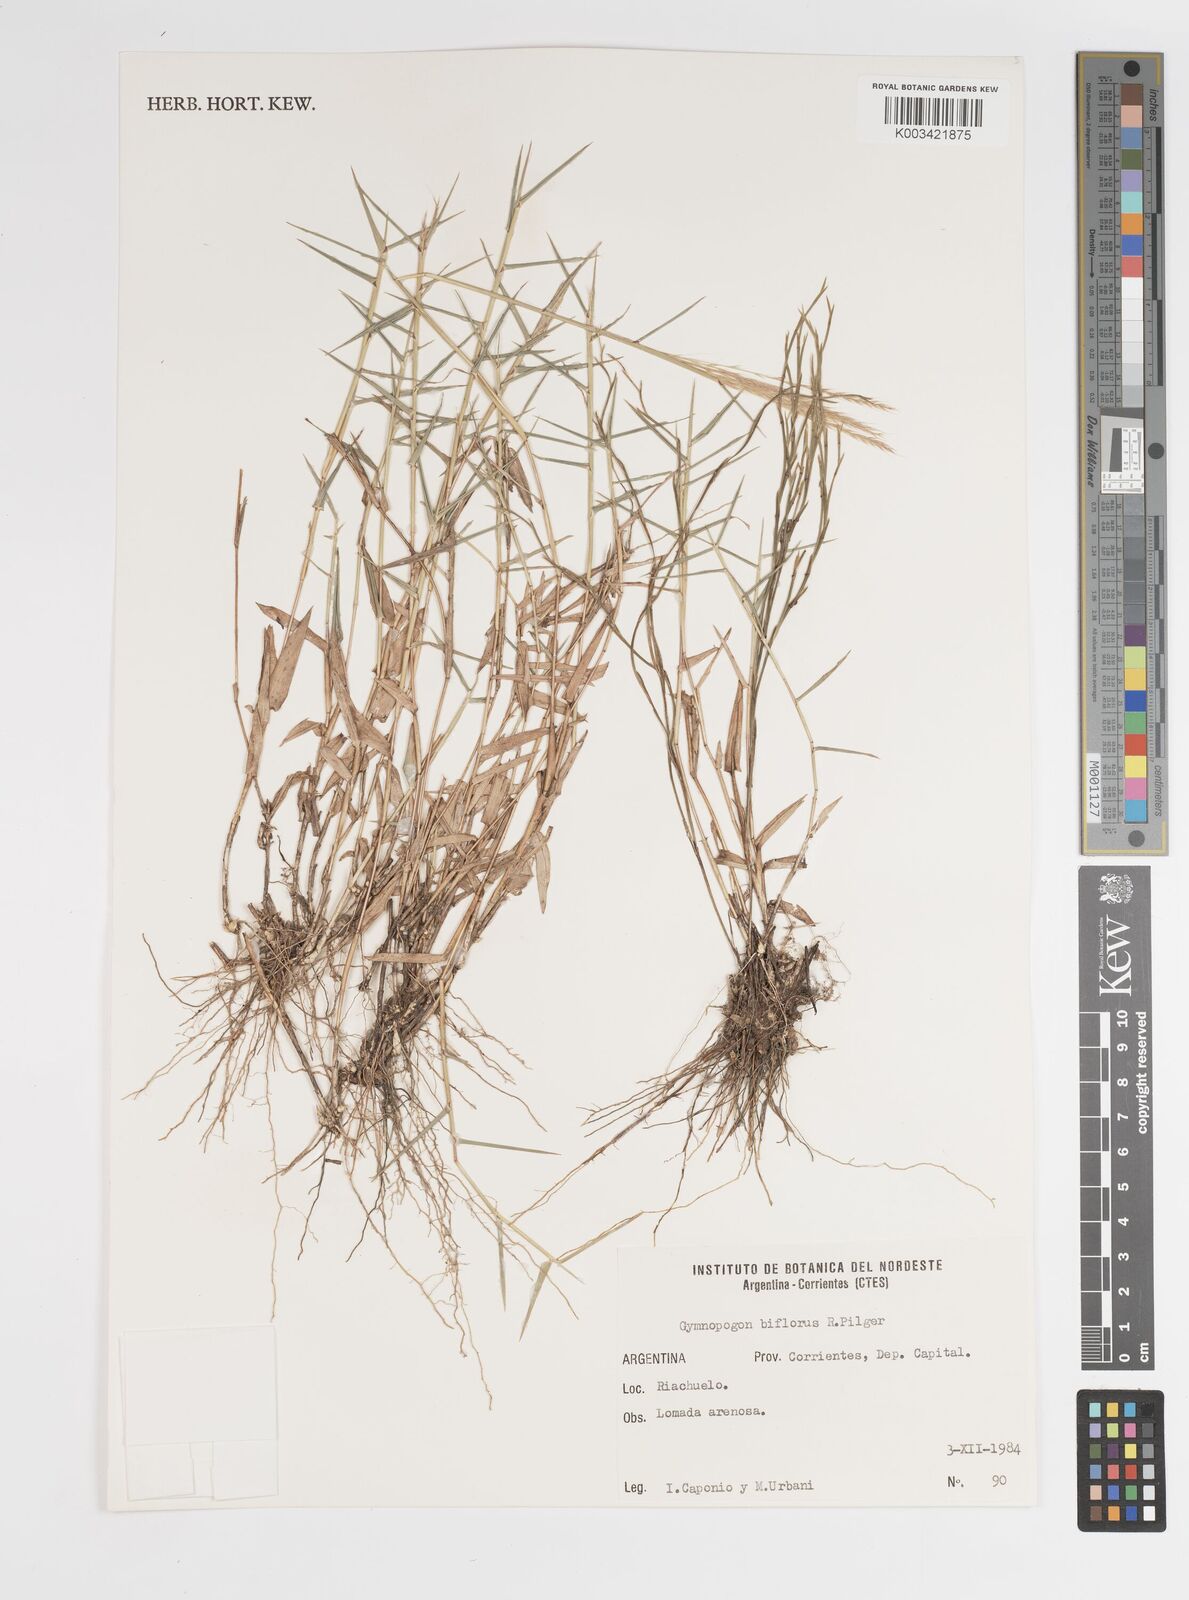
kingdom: Plantae
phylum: Tracheophyta
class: Liliopsida
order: Poales
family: Poaceae
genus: Gymnopogon
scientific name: Gymnopogon spicatus
